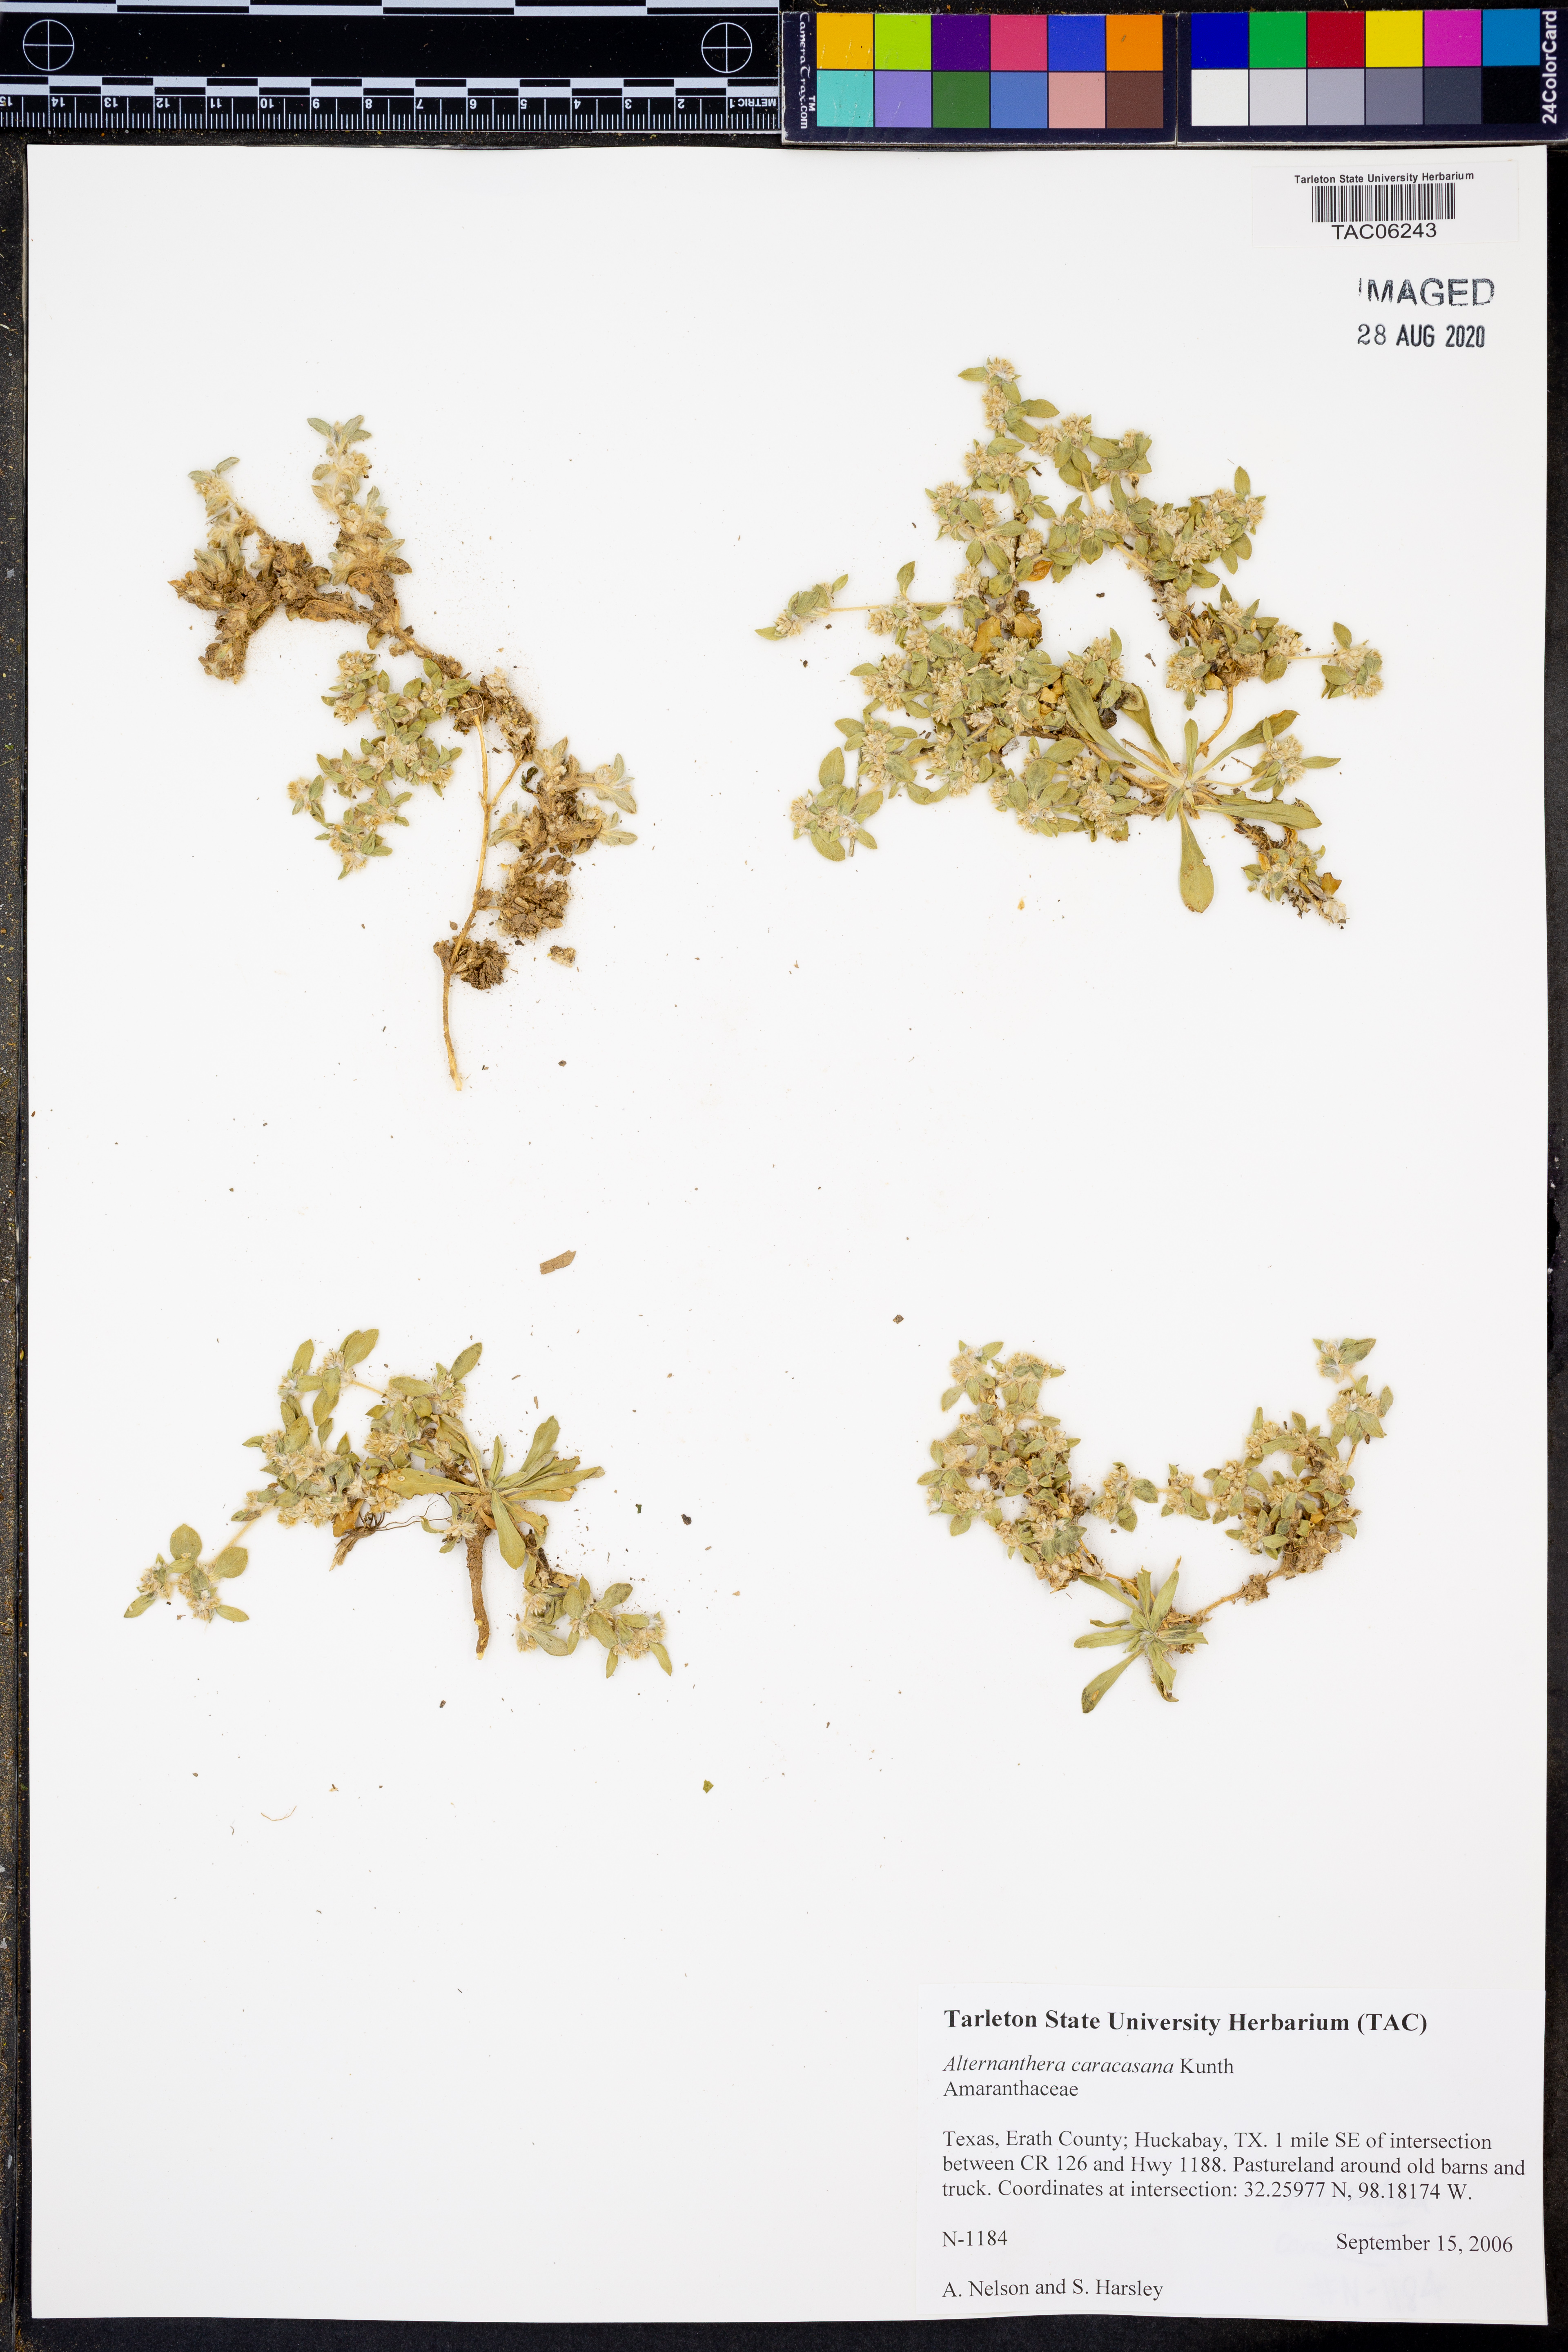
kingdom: Plantae
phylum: Tracheophyta
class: Magnoliopsida
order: Caryophyllales
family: Amaranthaceae
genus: Alternanthera
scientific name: Alternanthera caracasana
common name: Washerwoman
